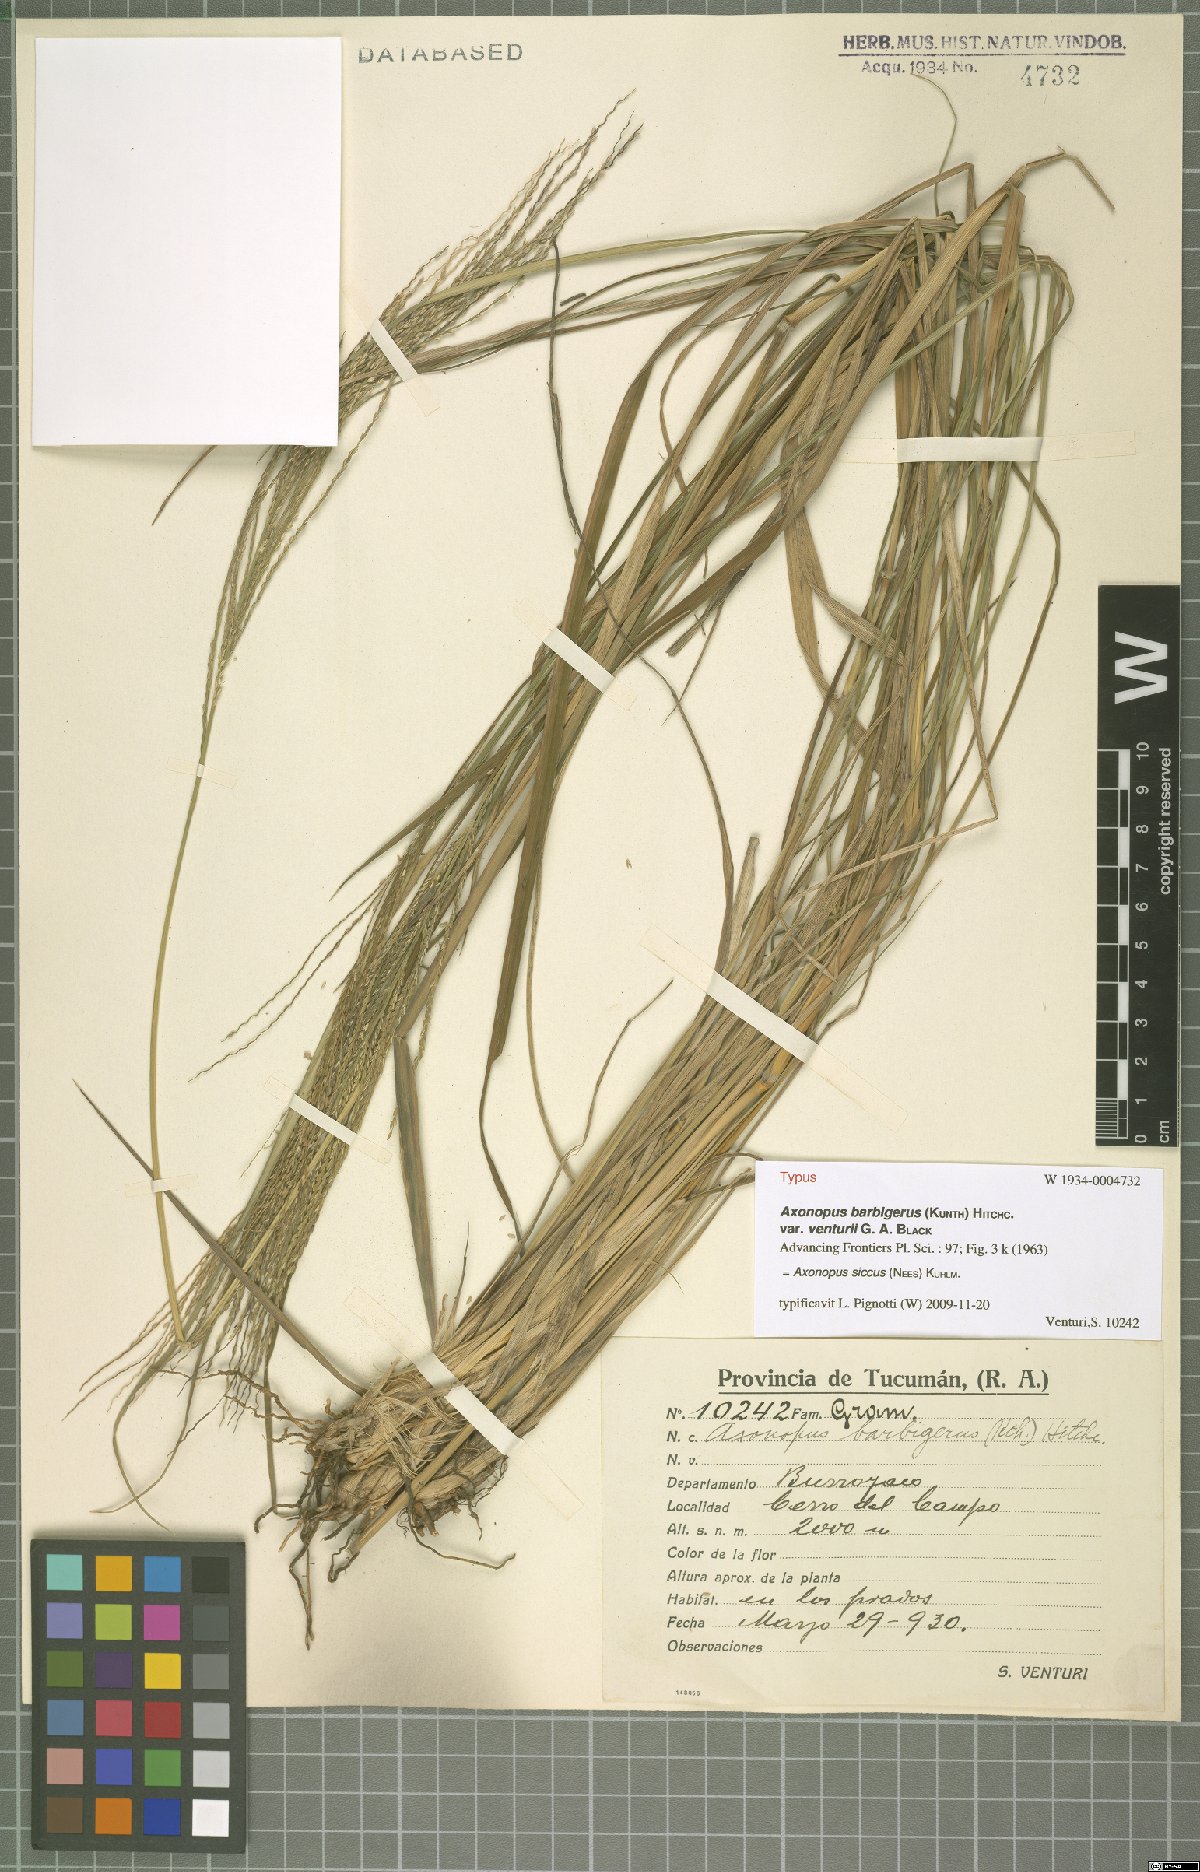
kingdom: Plantae
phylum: Tracheophyta
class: Liliopsida
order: Poales
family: Poaceae
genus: Axonopus
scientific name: Axonopus siccus
